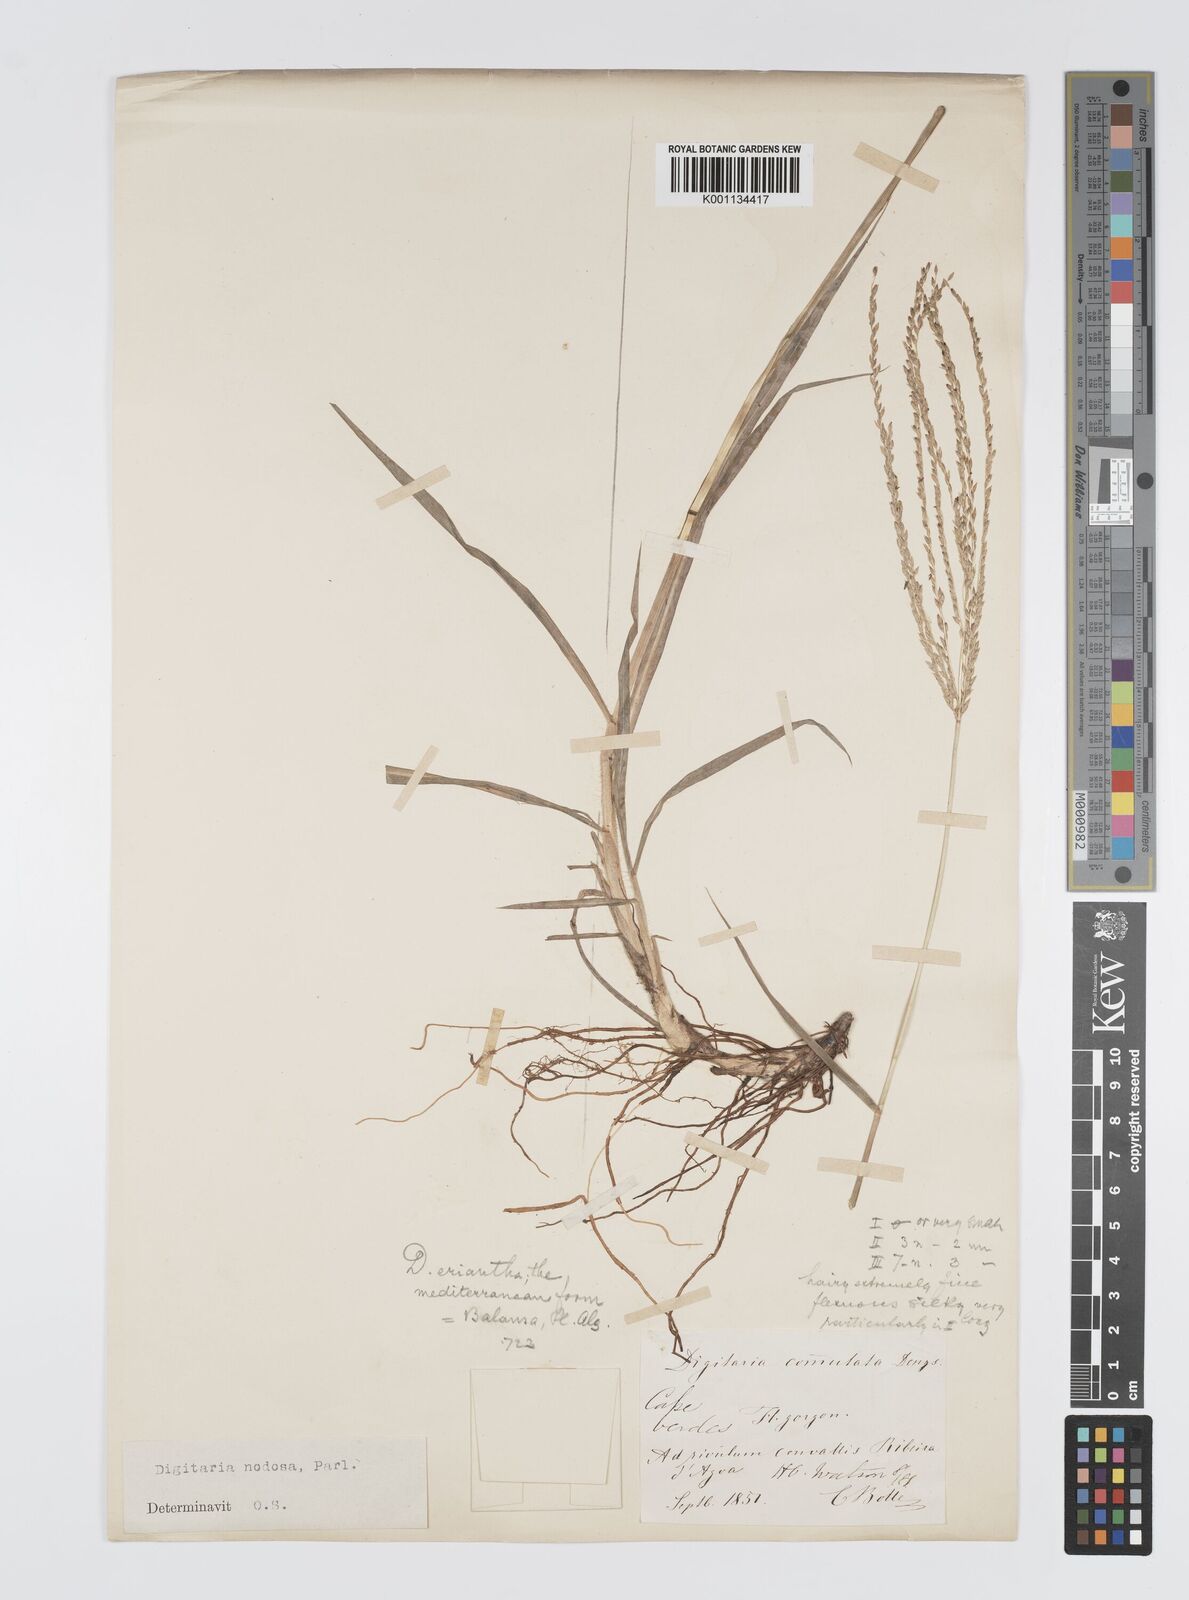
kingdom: Plantae
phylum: Tracheophyta
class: Liliopsida
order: Poales
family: Poaceae
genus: Digitaria
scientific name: Digitaria nodosa
